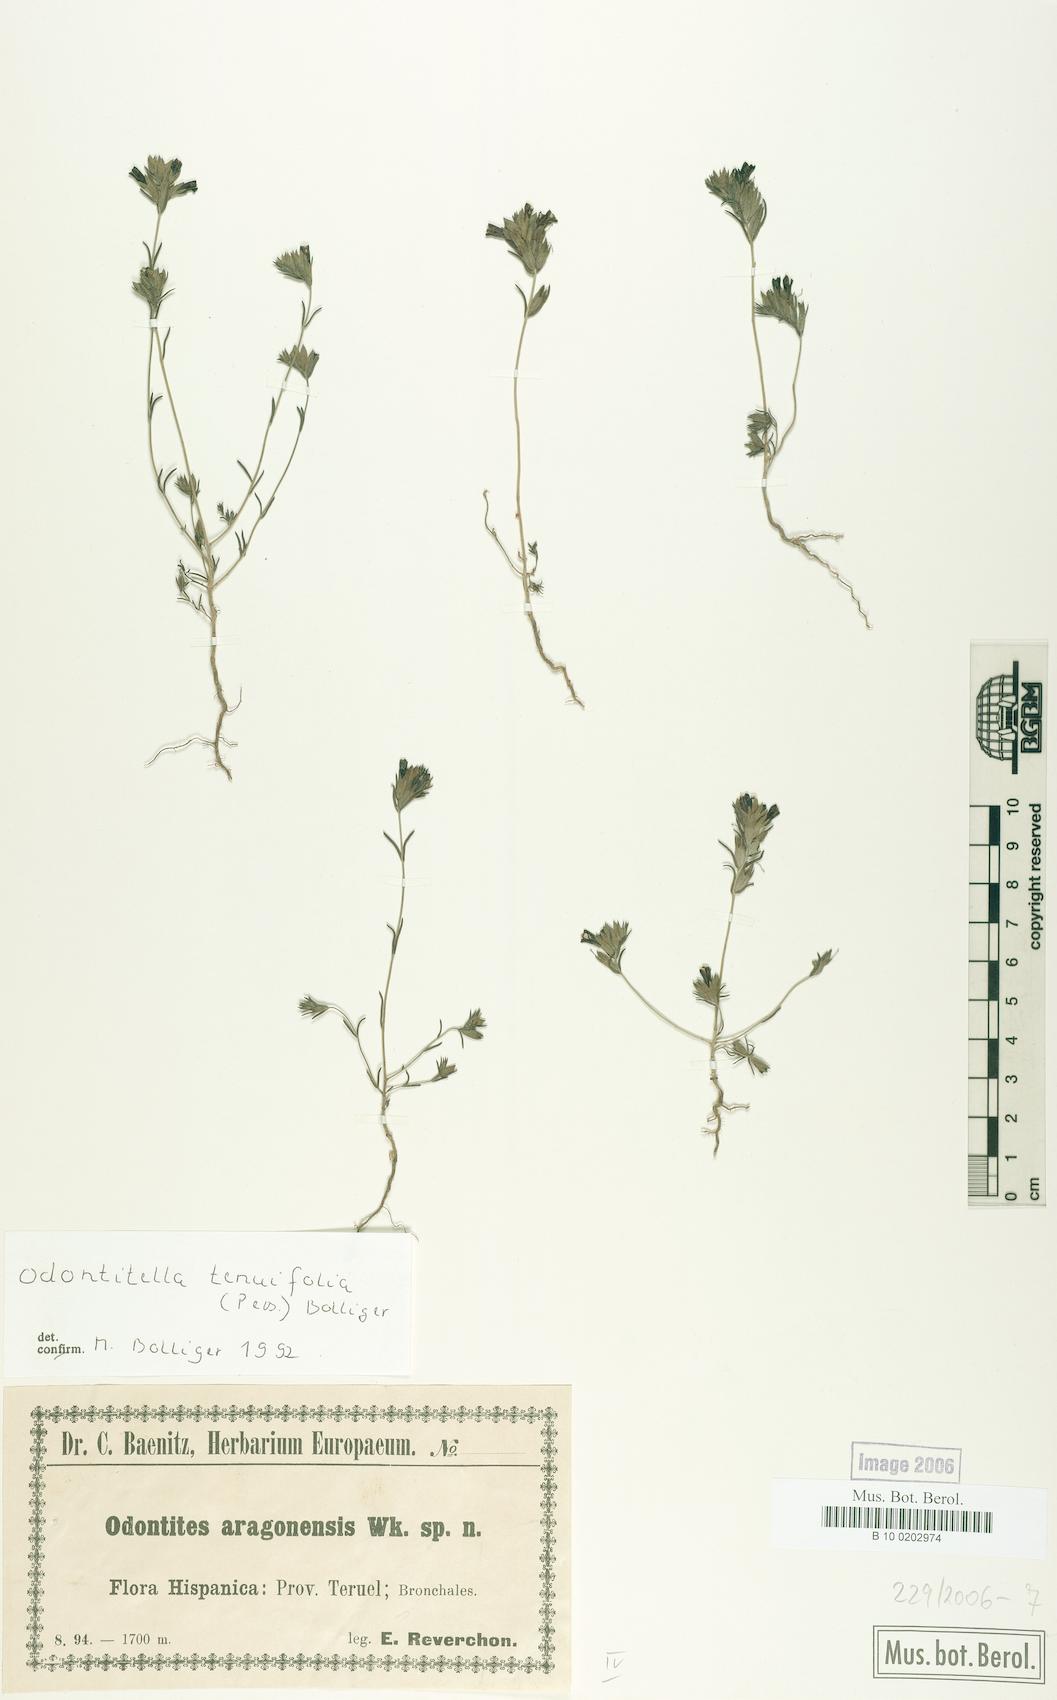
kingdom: Plantae
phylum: Tracheophyta
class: Magnoliopsida
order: Lamiales
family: Orobanchaceae
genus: Odontitella
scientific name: Odontitella virgata
